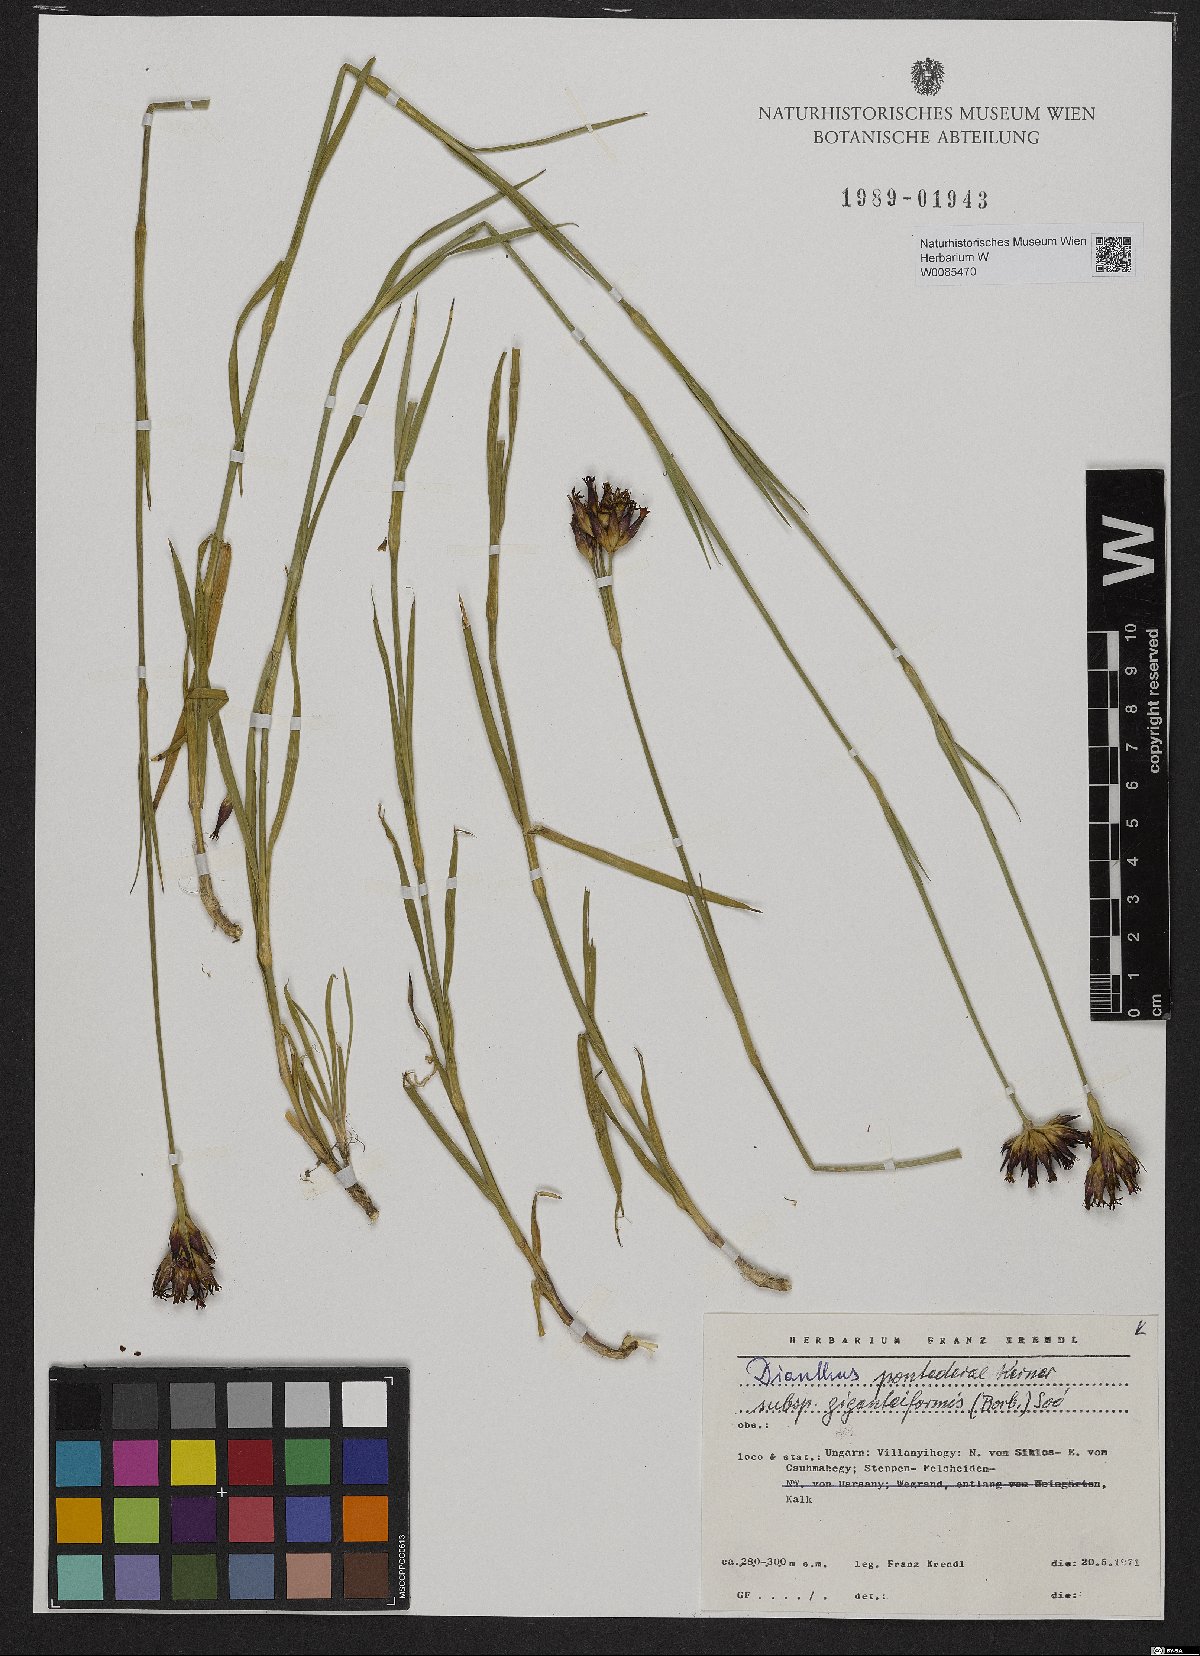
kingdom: Plantae
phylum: Tracheophyta
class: Magnoliopsida
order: Caryophyllales
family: Caryophyllaceae
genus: Dianthus
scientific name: Dianthus giganteiformis
